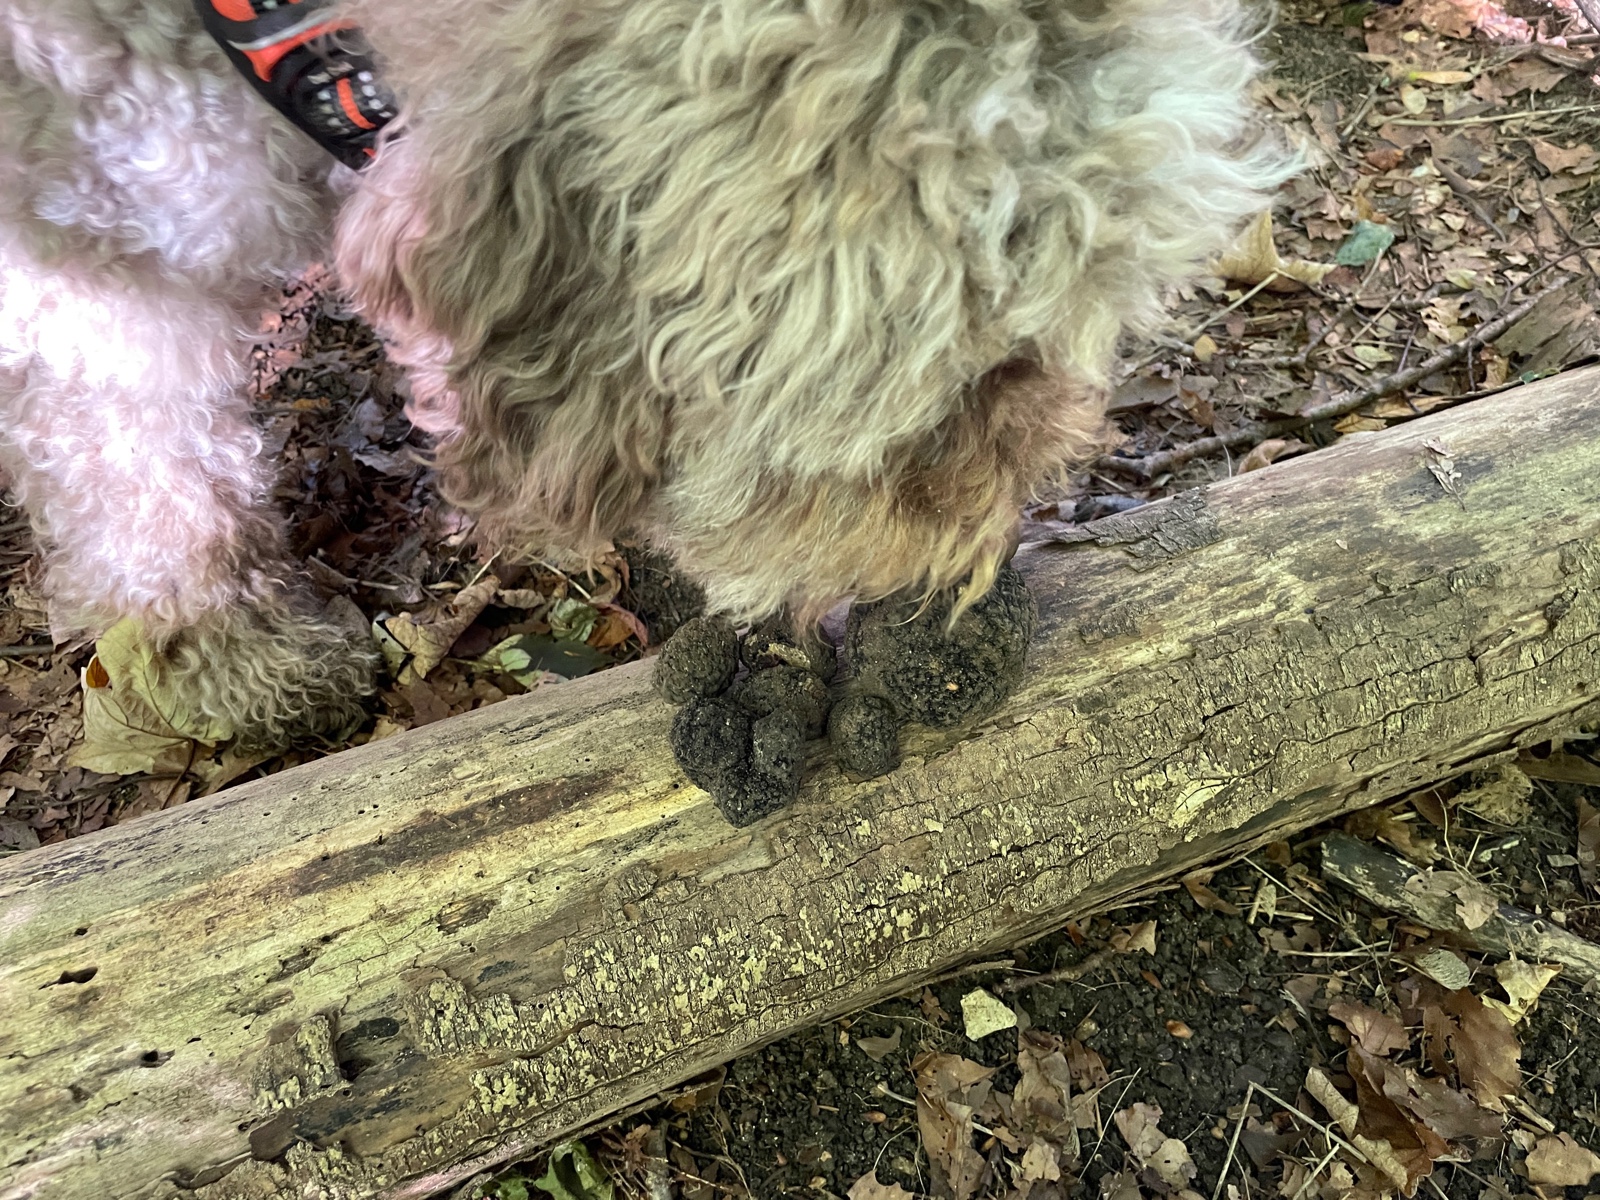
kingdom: Fungi
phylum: Ascomycota
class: Pezizomycetes
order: Pezizales
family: Tuberaceae
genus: Tuber
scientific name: Tuber aestivum
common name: sommer-trøffel
